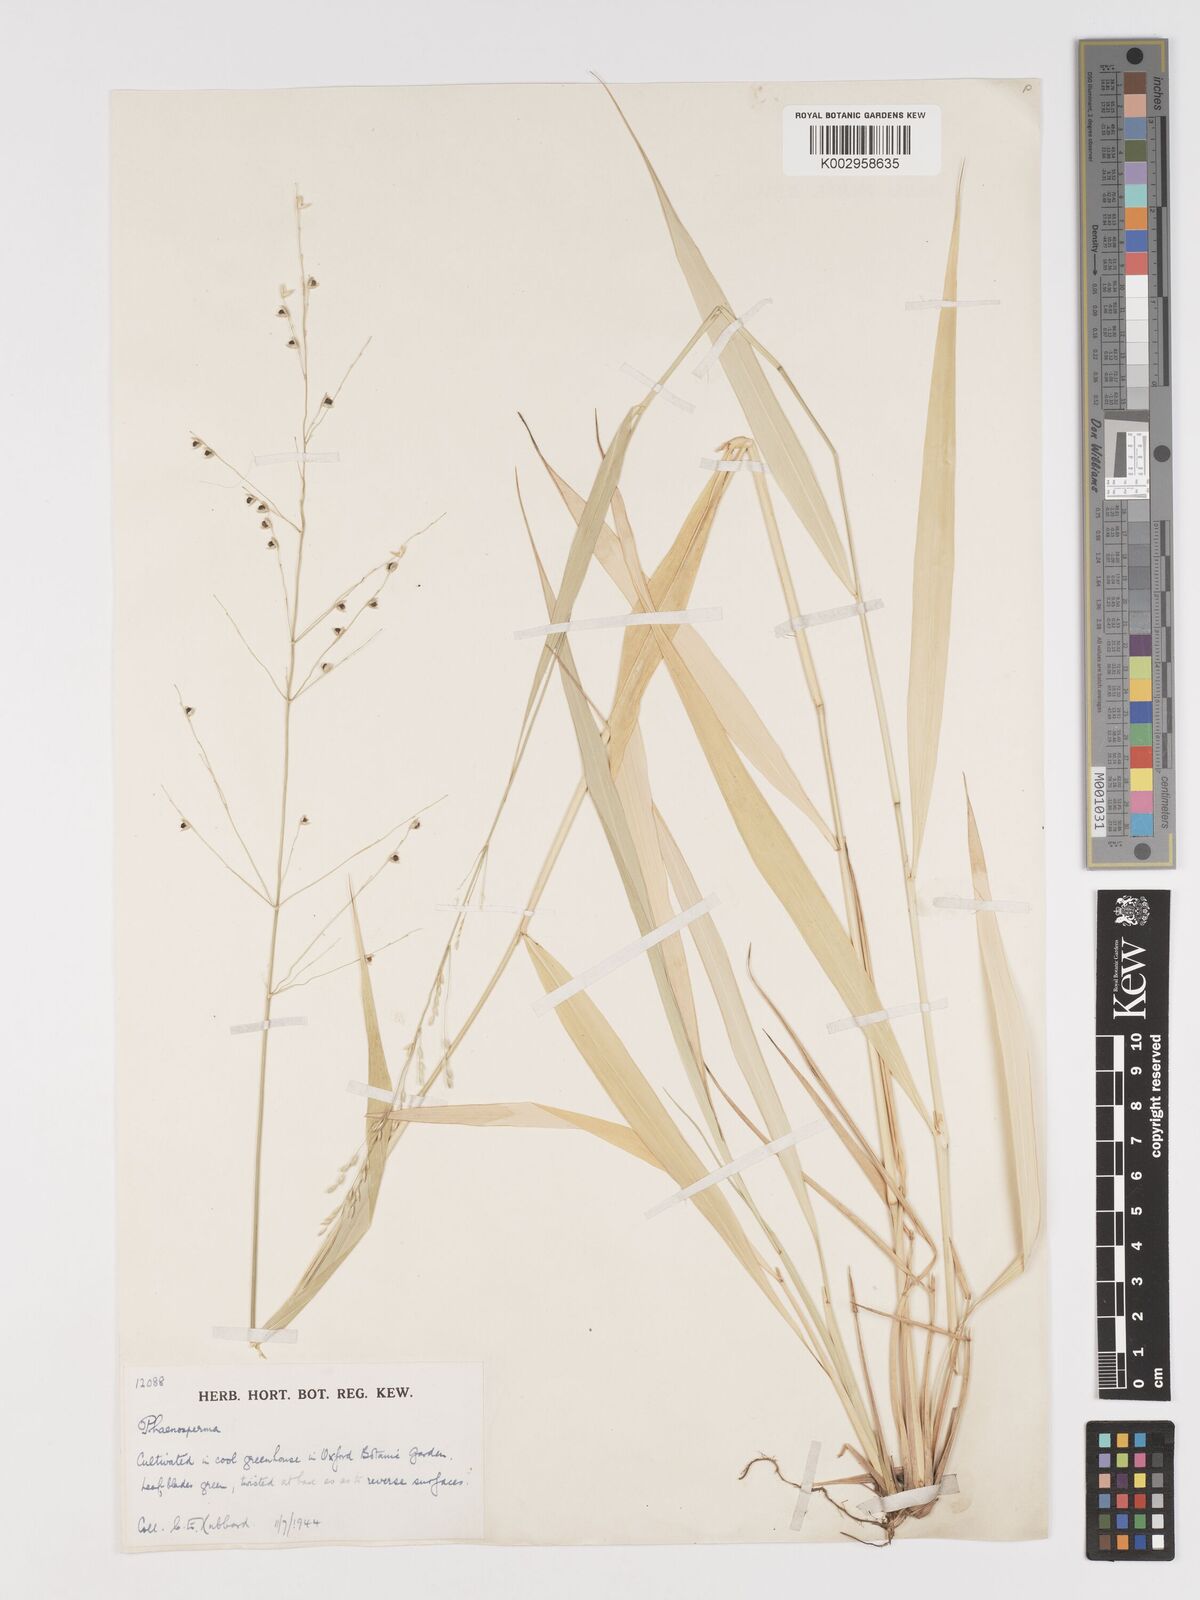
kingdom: Plantae
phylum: Tracheophyta
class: Liliopsida
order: Poales
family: Poaceae
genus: Phaenosperma
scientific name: Phaenosperma globosum
